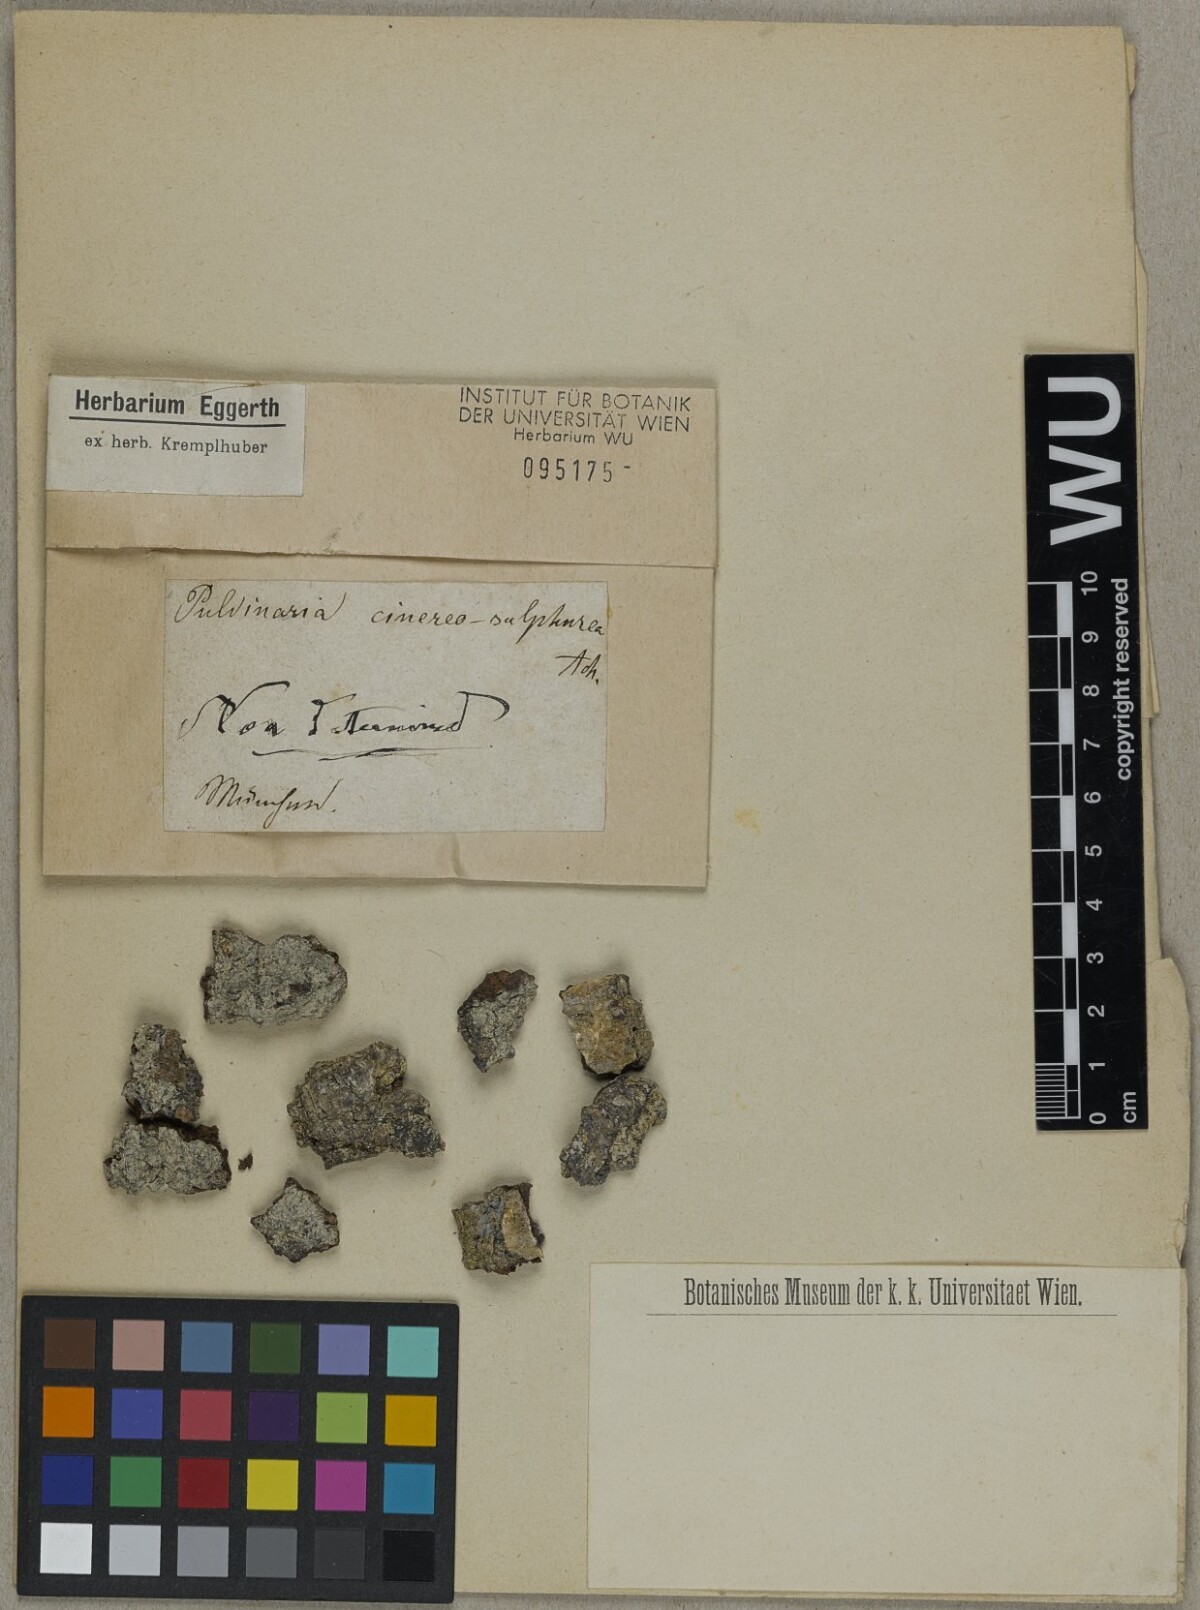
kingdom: Fungi
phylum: Ascomycota
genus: Pulvinaria
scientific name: Pulvinaria
